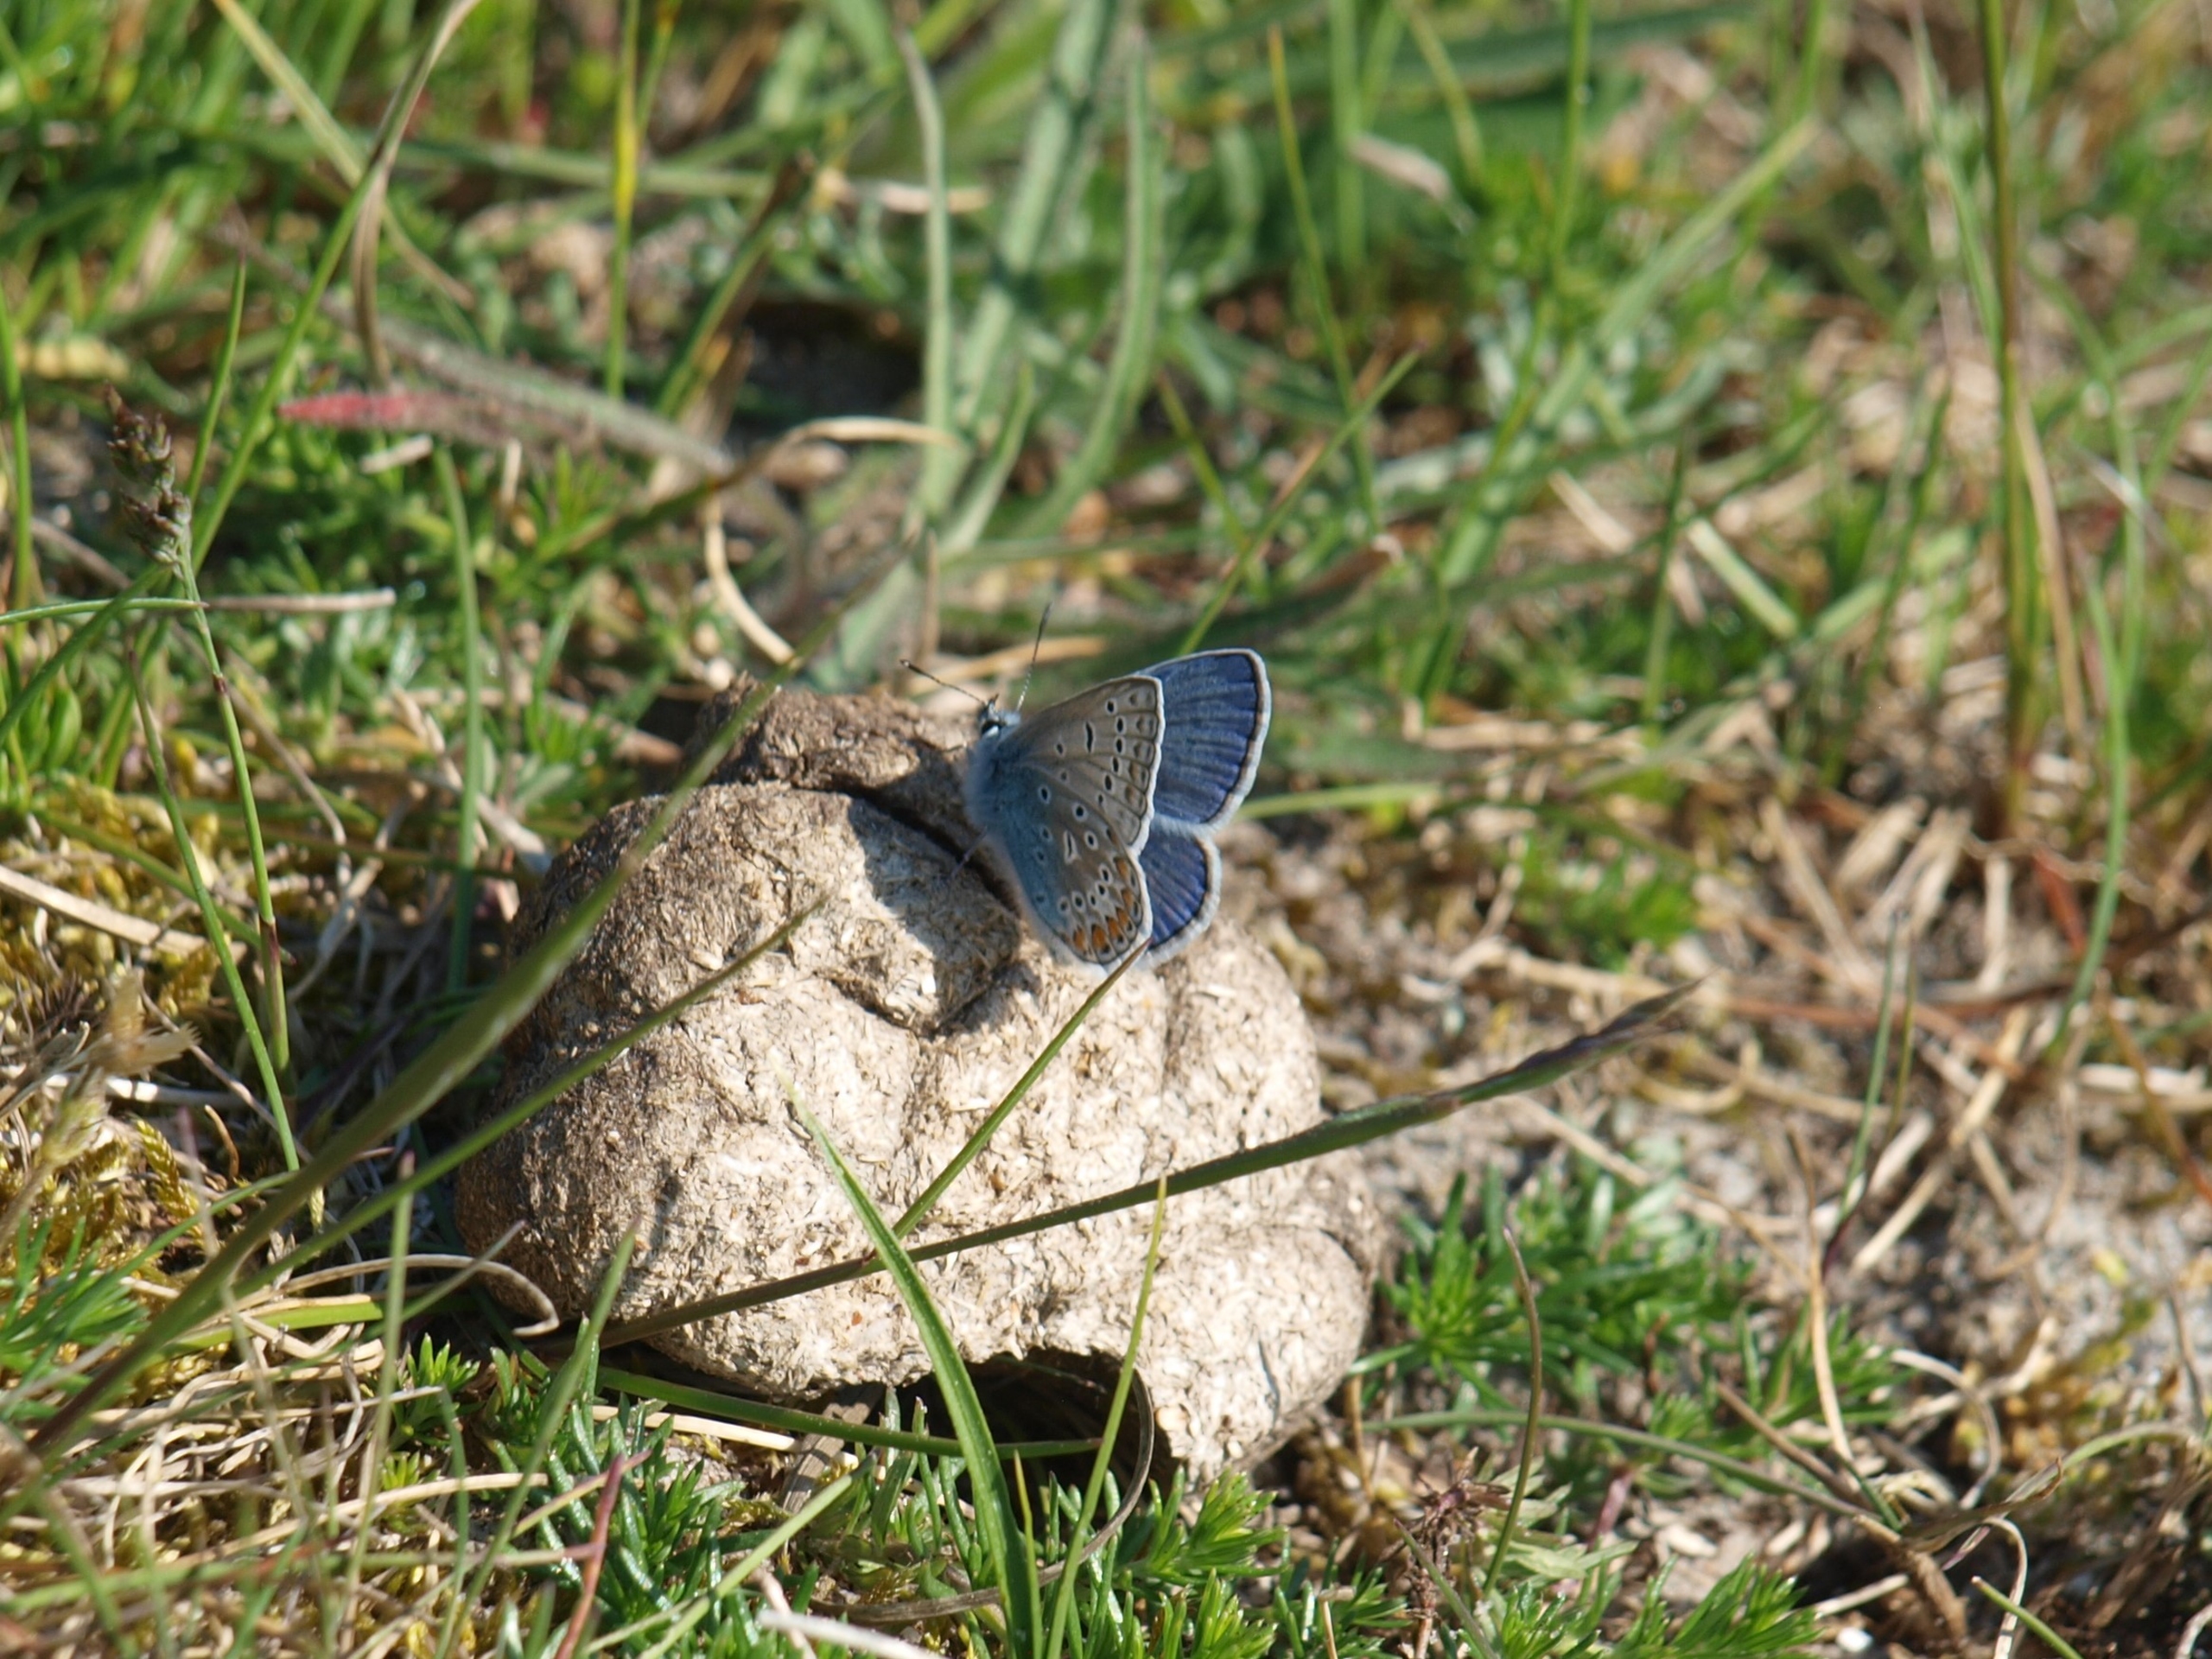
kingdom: Animalia
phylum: Arthropoda
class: Insecta
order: Lepidoptera
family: Lycaenidae
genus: Polyommatus
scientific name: Polyommatus icarus
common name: Almindelig blåfugl
